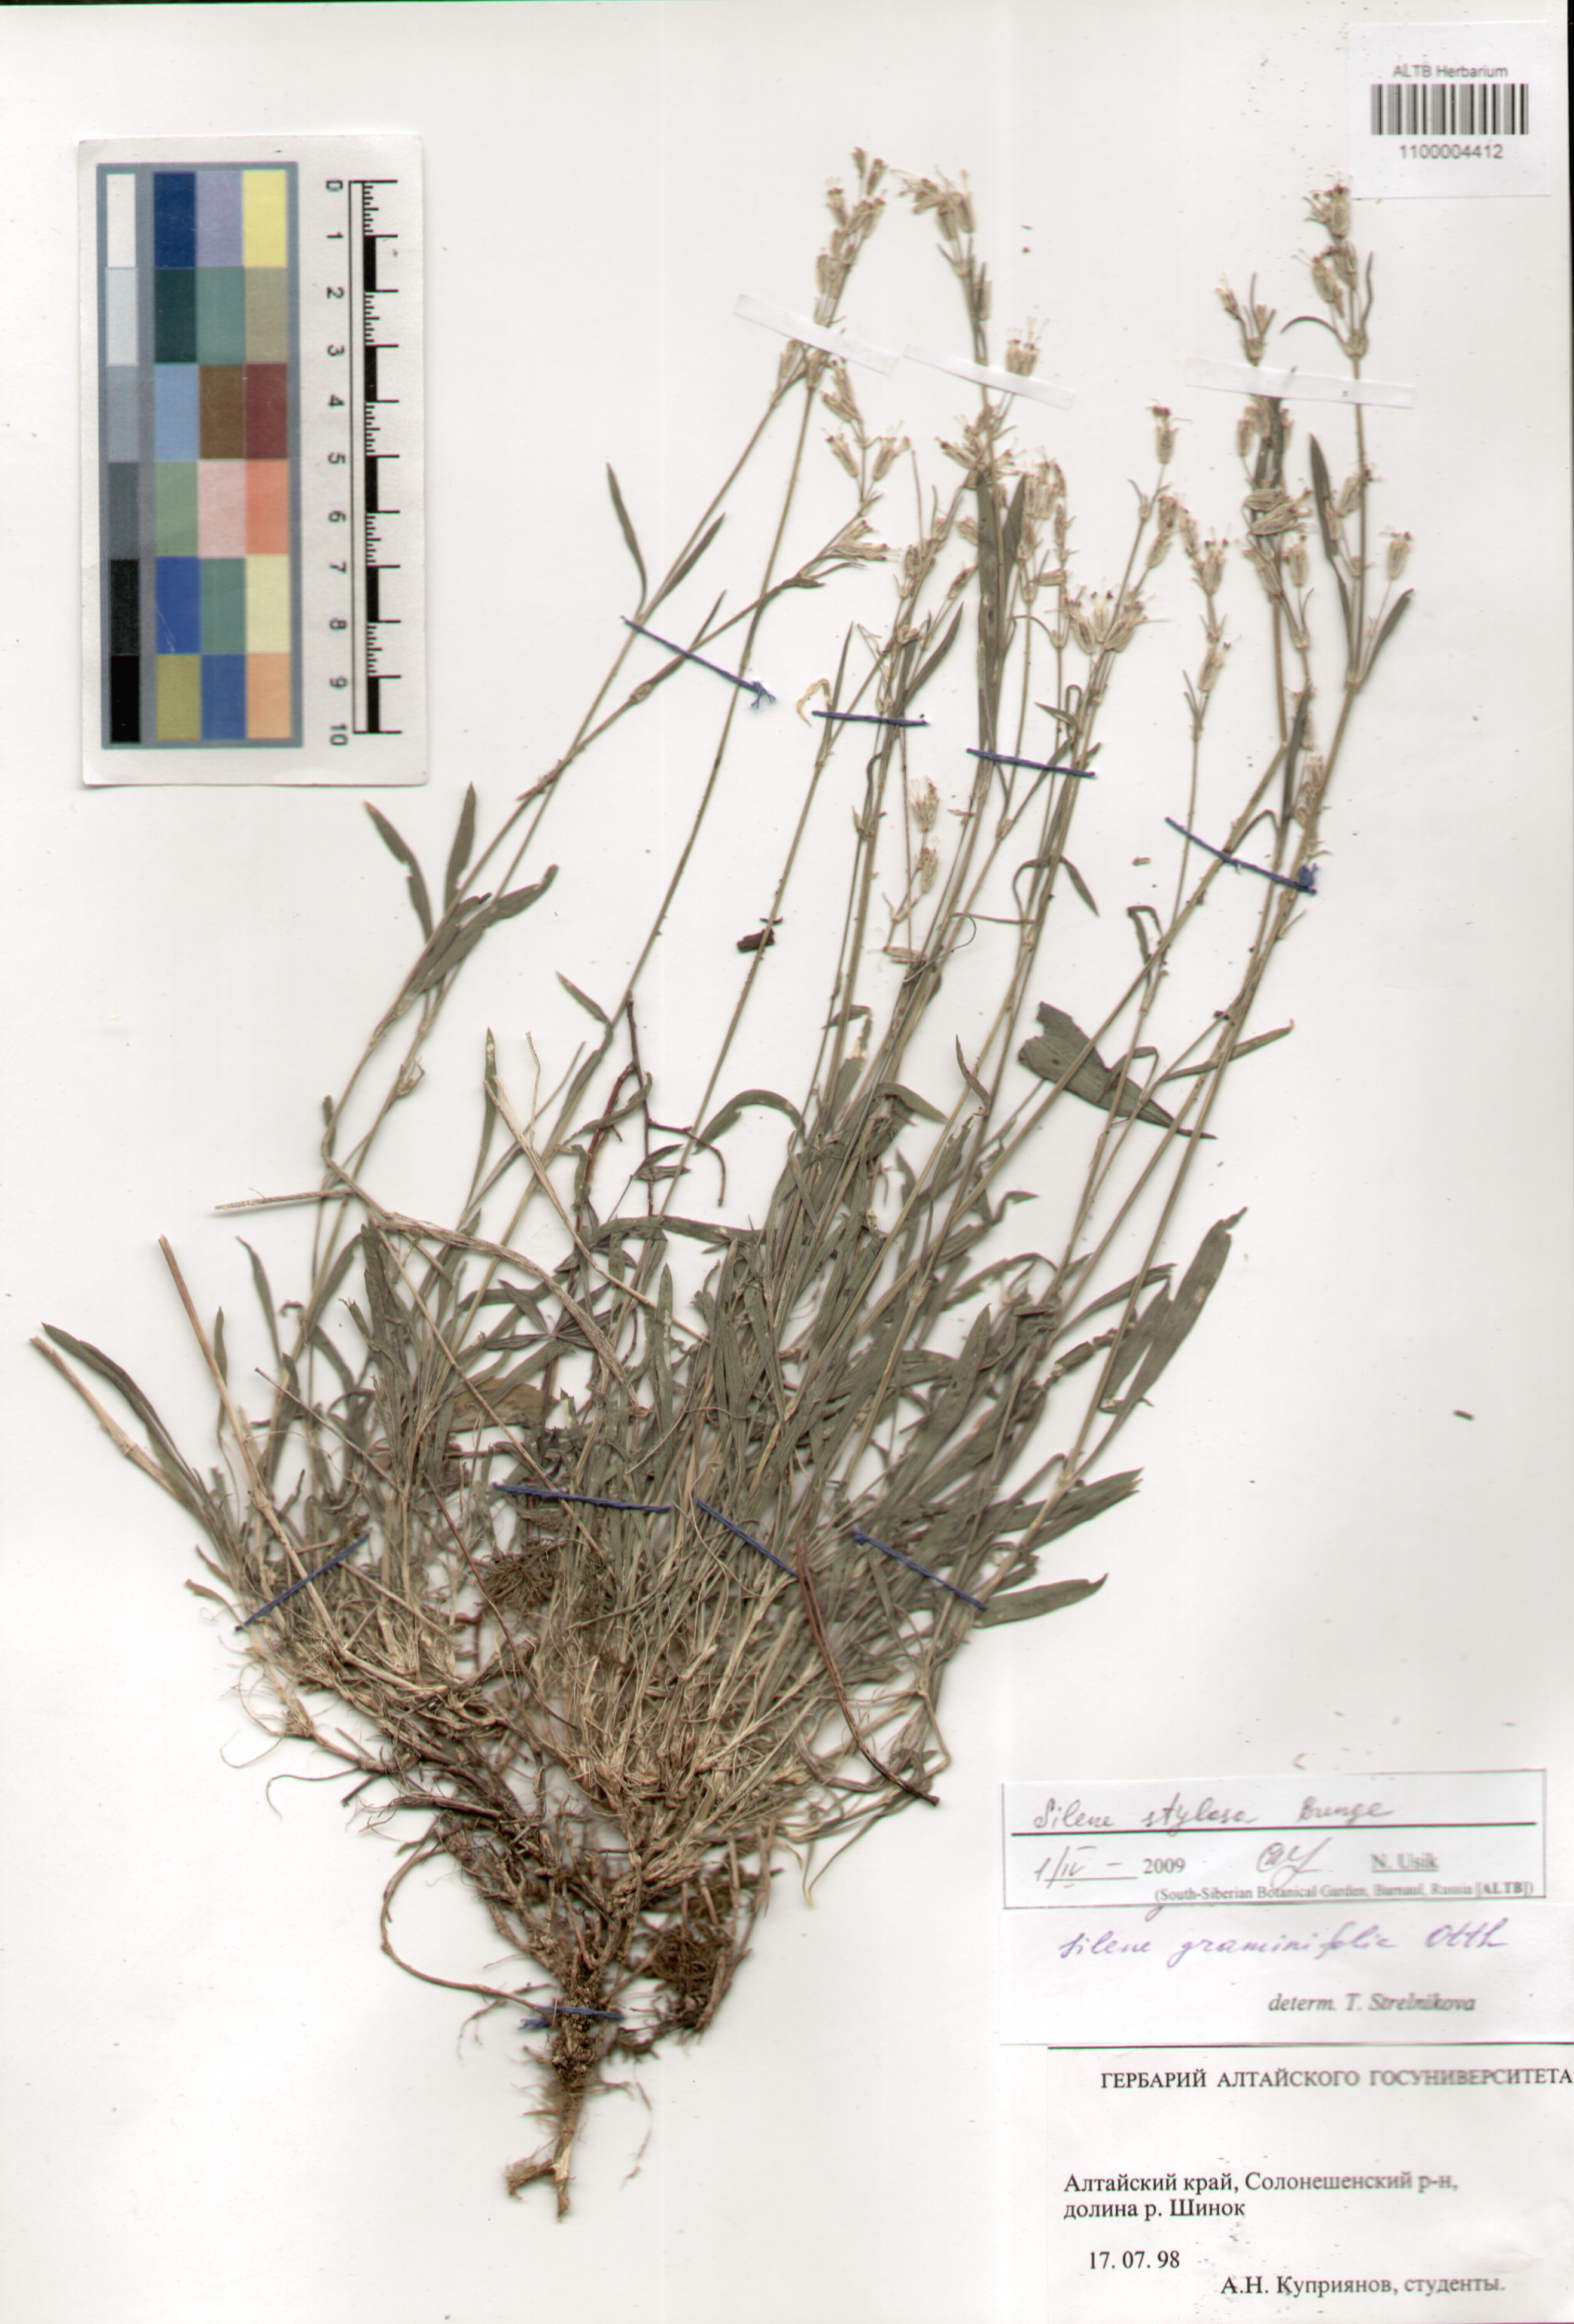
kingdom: Plantae
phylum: Tracheophyta
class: Magnoliopsida
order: Caryophyllales
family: Caryophyllaceae
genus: Silene
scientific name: Silene graminifolia
